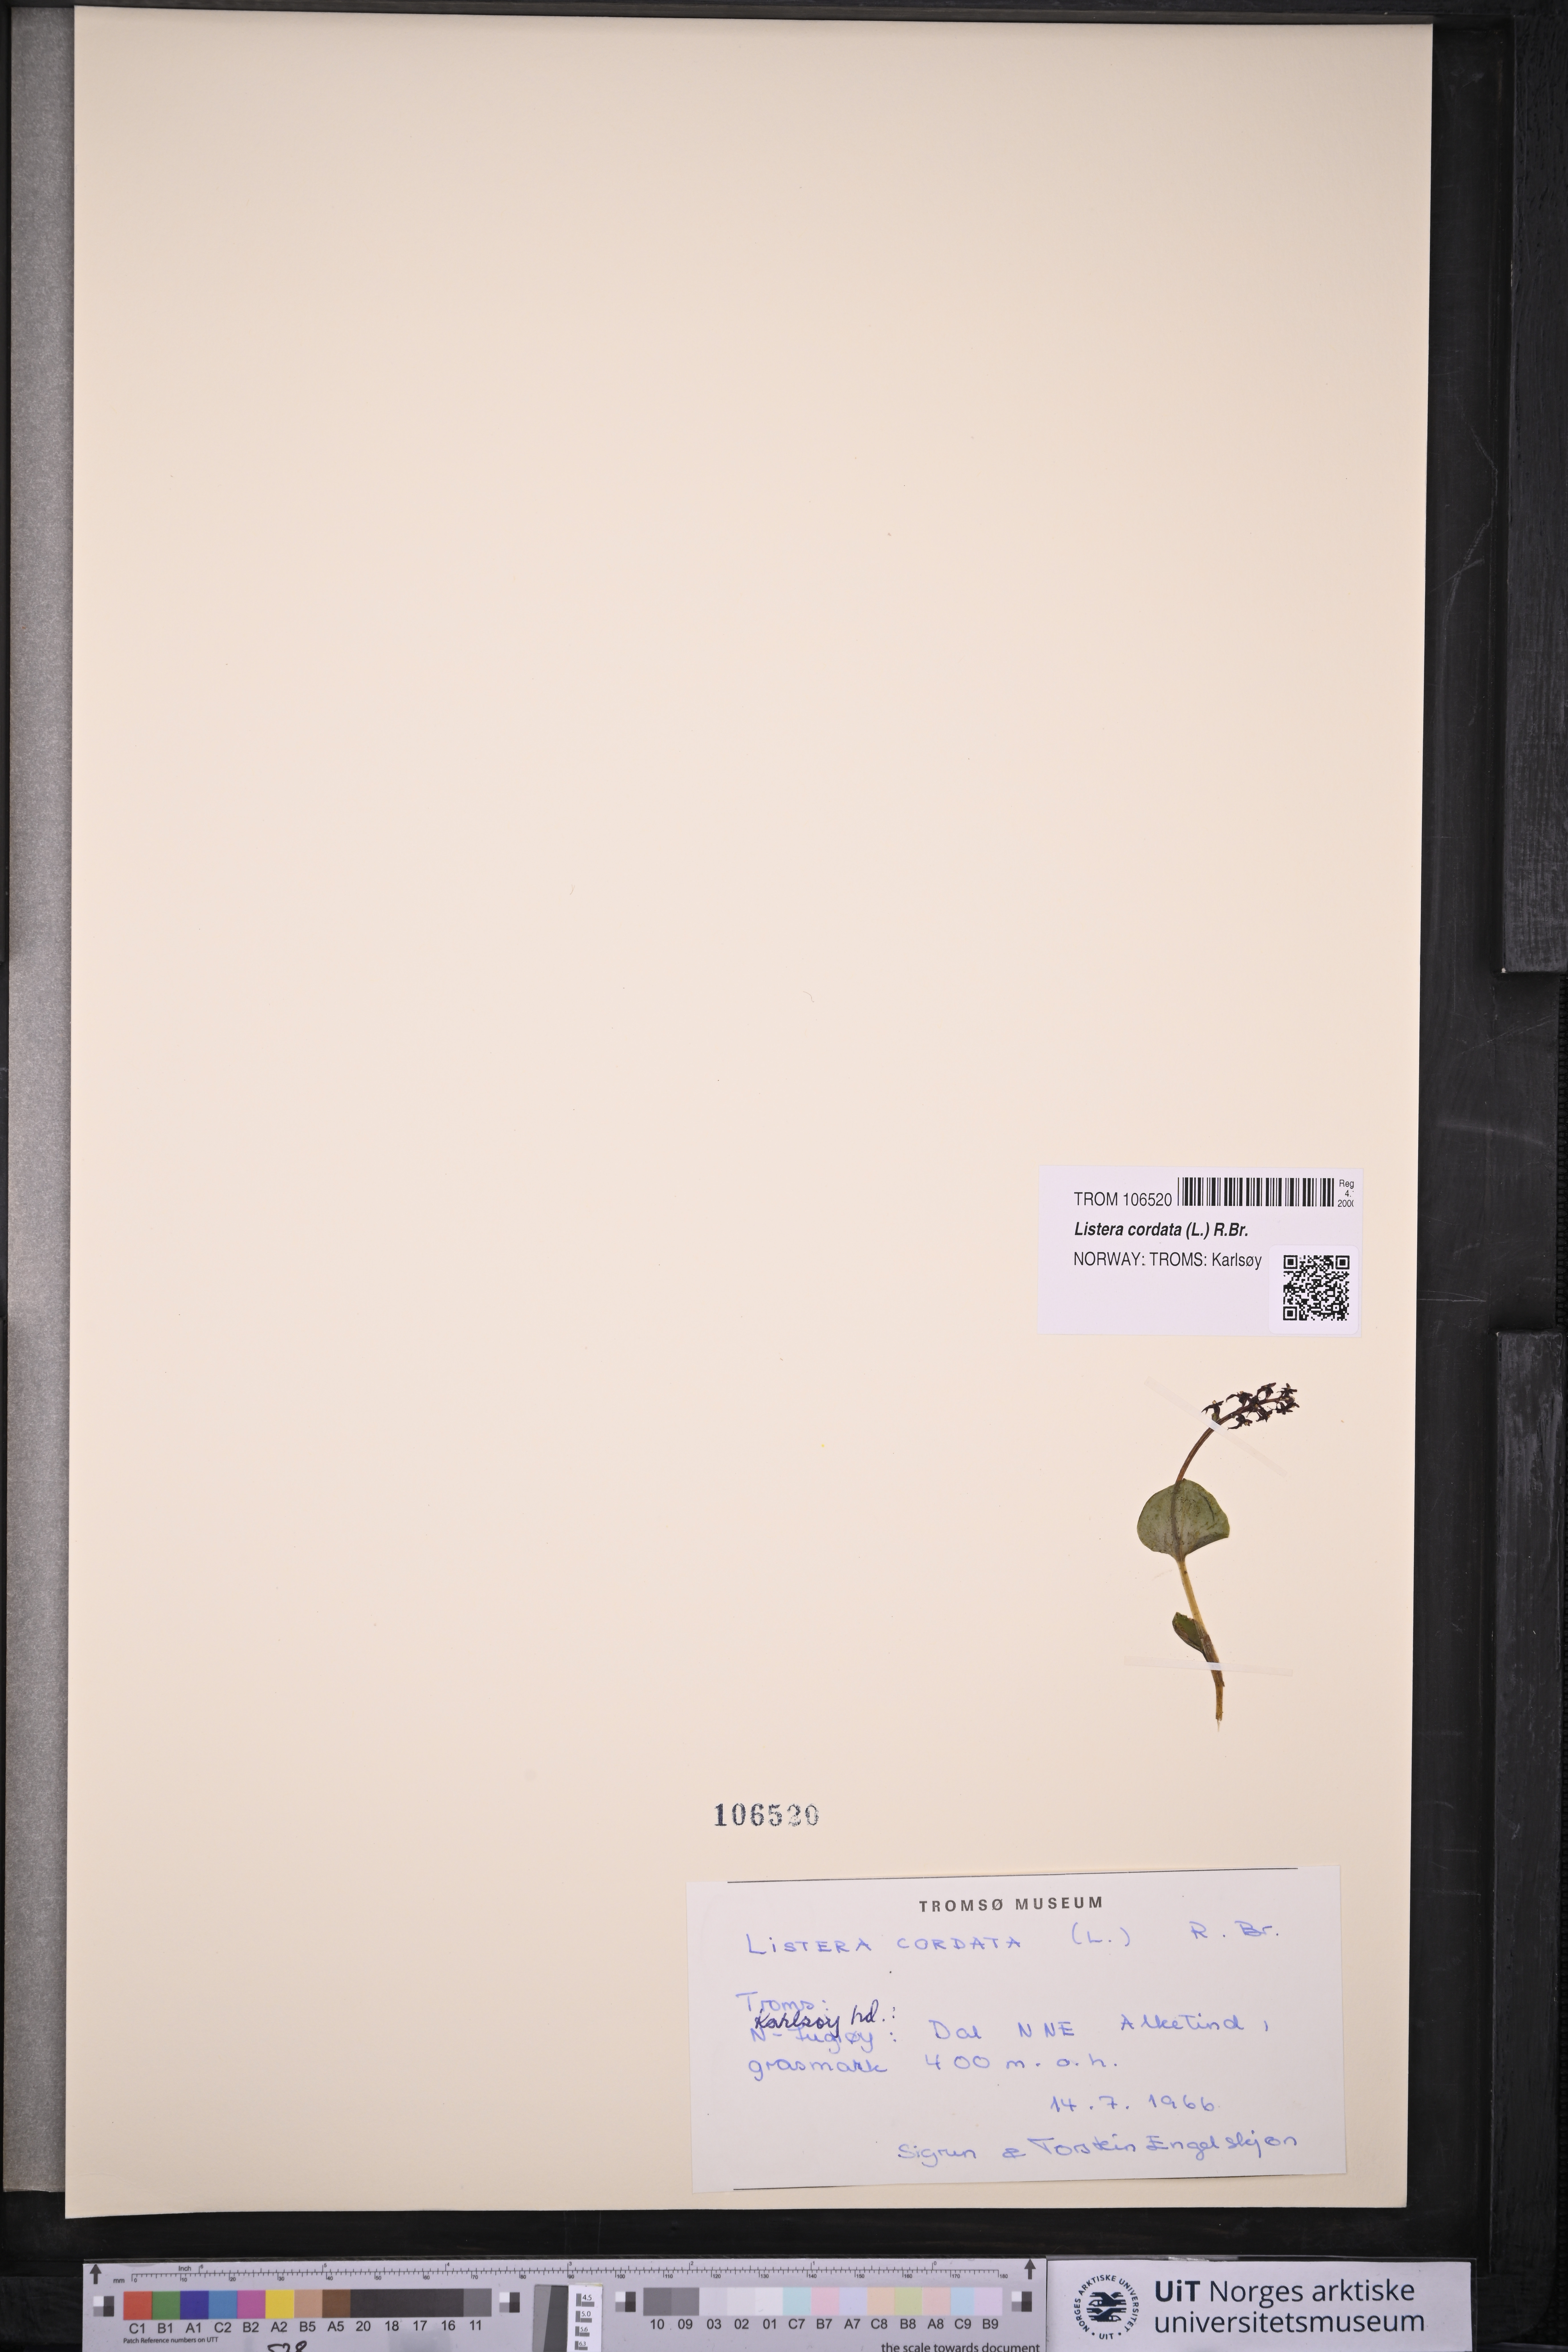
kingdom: Plantae
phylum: Tracheophyta
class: Liliopsida
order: Asparagales
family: Orchidaceae
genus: Neottia
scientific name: Neottia cordata
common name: Lesser twayblade
